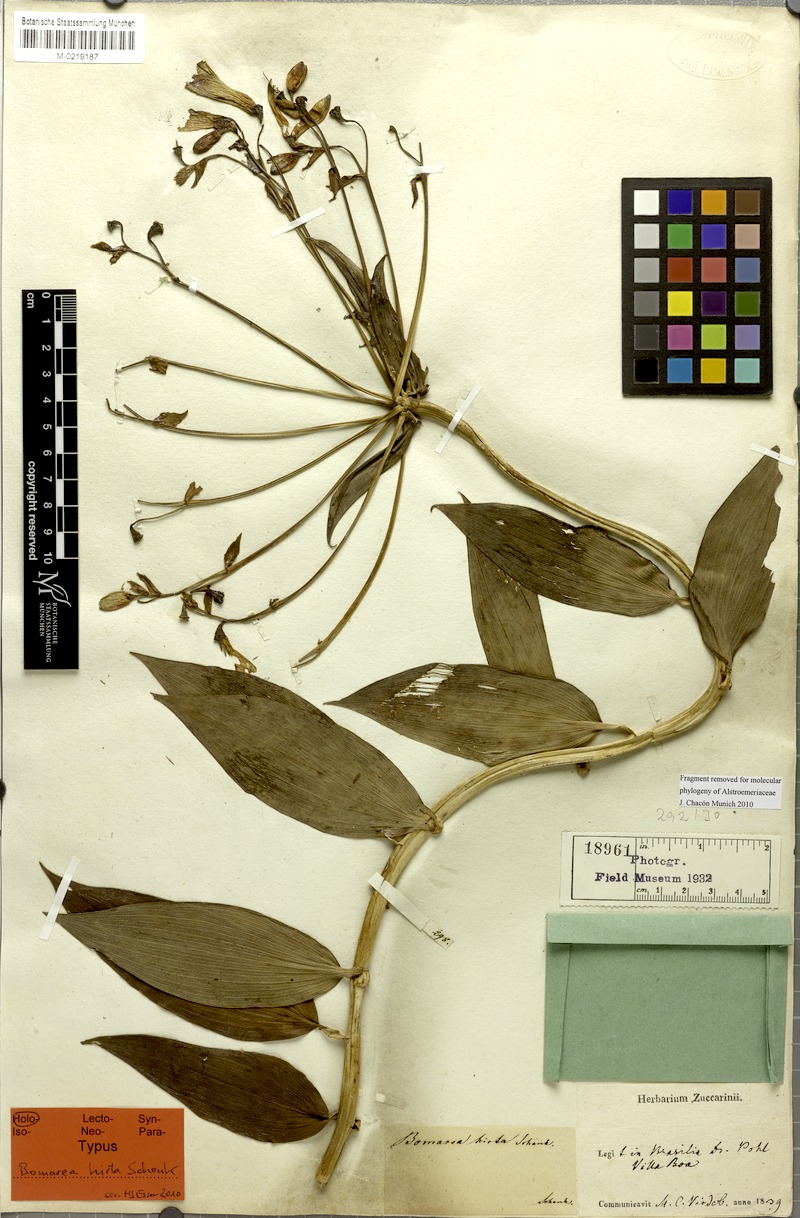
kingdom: Plantae
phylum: Tracheophyta
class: Liliopsida
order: Liliales
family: Alstroemeriaceae
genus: Bomarea
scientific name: Bomarea edulis
